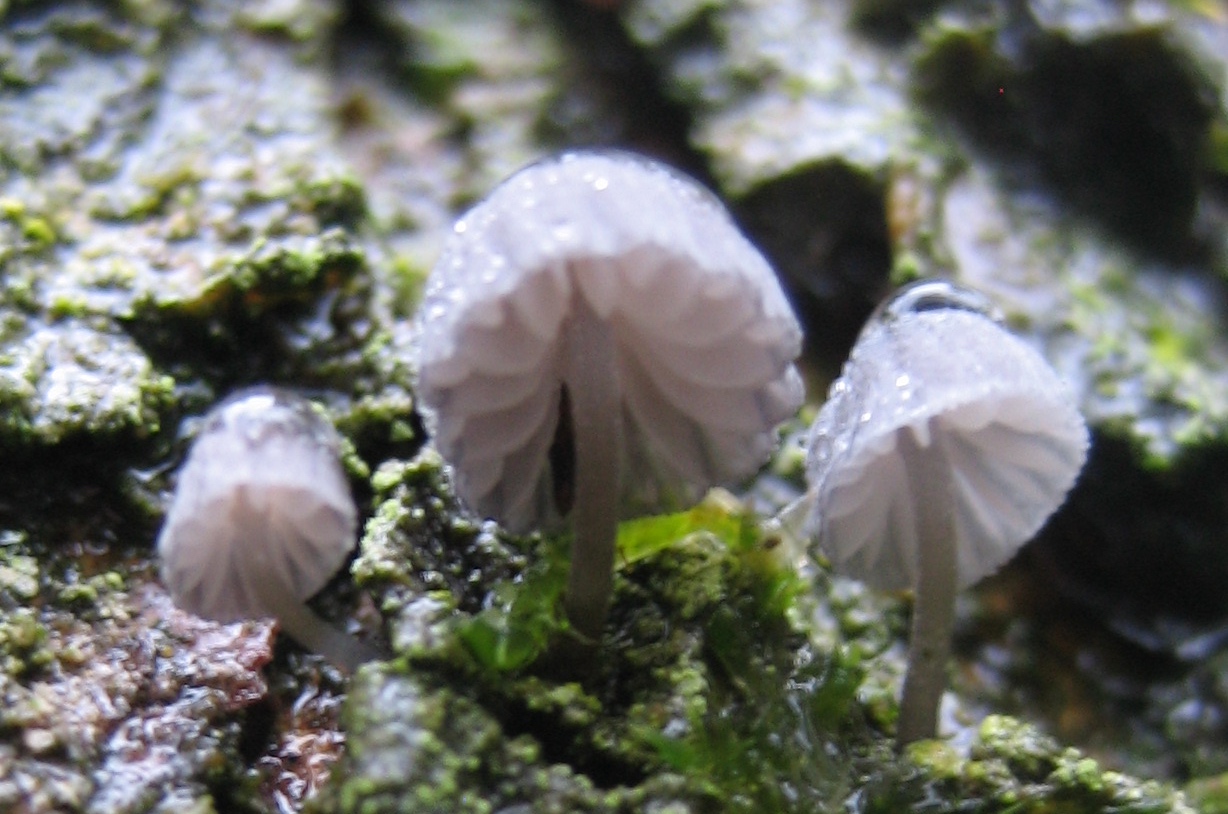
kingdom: Fungi
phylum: Basidiomycota
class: Agaricomycetes
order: Agaricales
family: Mycenaceae
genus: Mycena
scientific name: Mycena pseudocorticola
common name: gråblå bark-huesvamp
